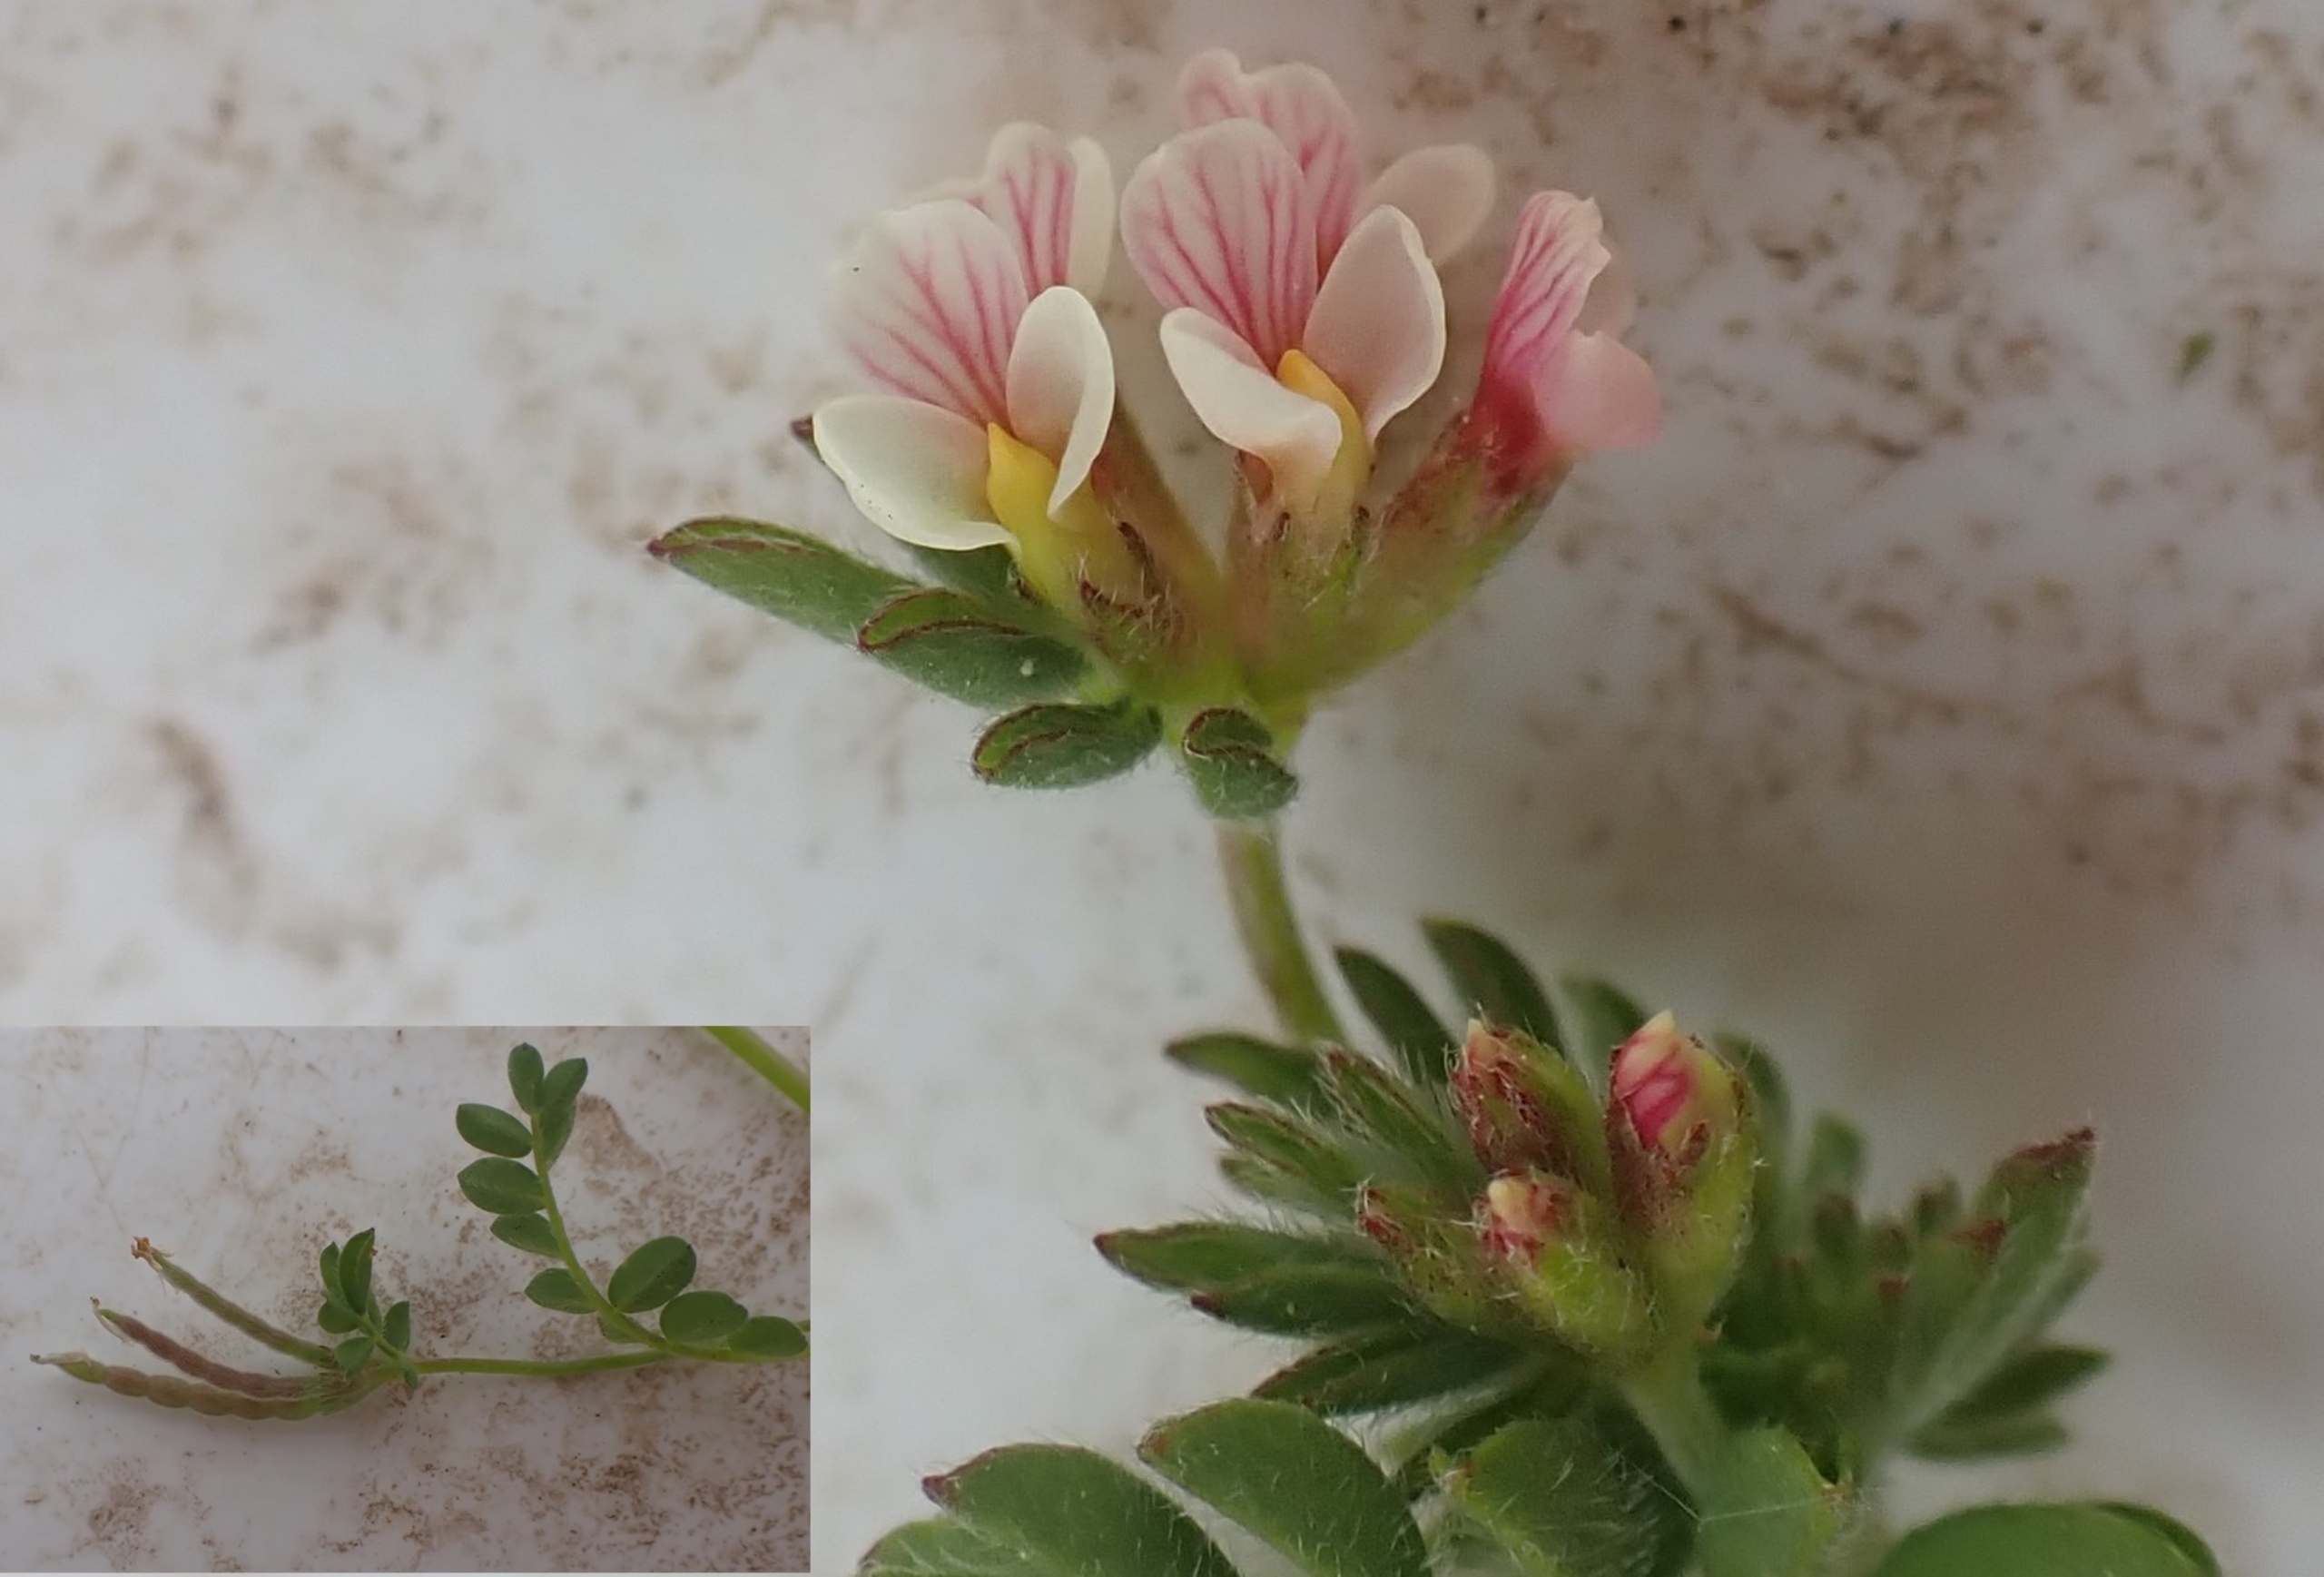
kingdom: Plantae
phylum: Tracheophyta
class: Magnoliopsida
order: Fabales
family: Fabaceae
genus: Ornithopus
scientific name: Ornithopus perpusillus
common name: Liden fugleklo
